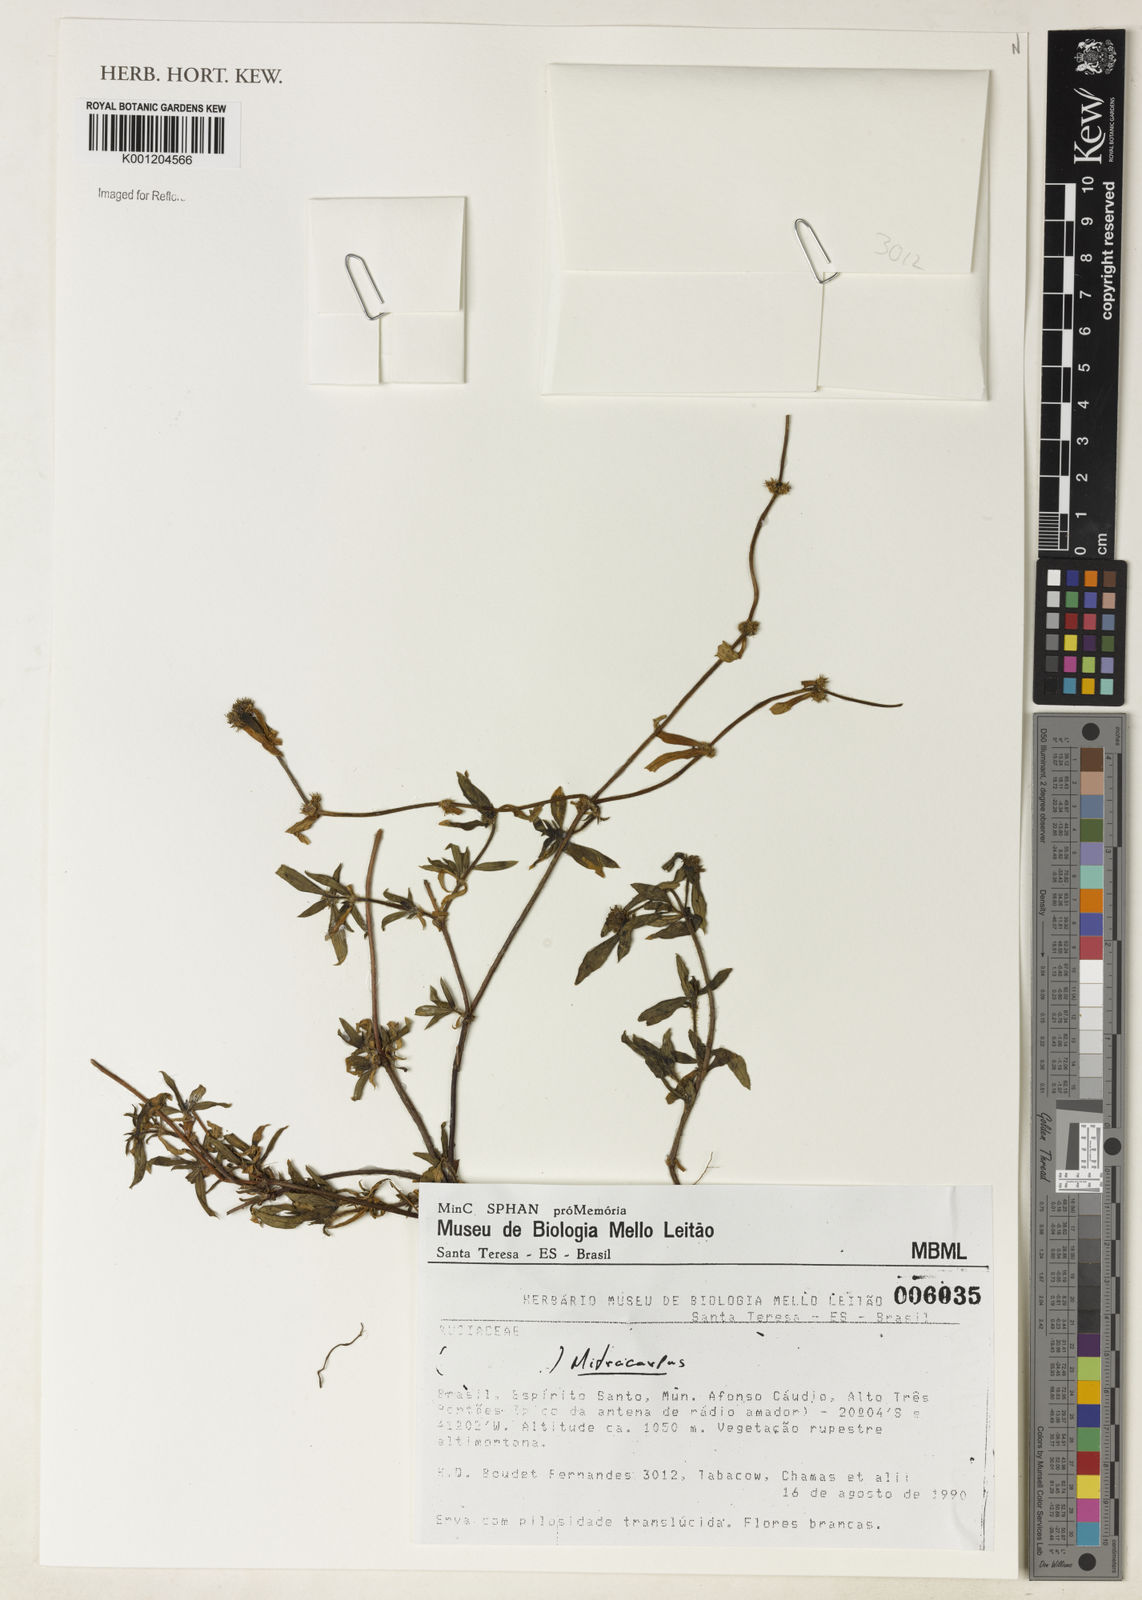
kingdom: Plantae
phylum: Tracheophyta
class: Magnoliopsida
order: Gentianales
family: Rubiaceae
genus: Mitracarpus
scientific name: Mitracarpus
